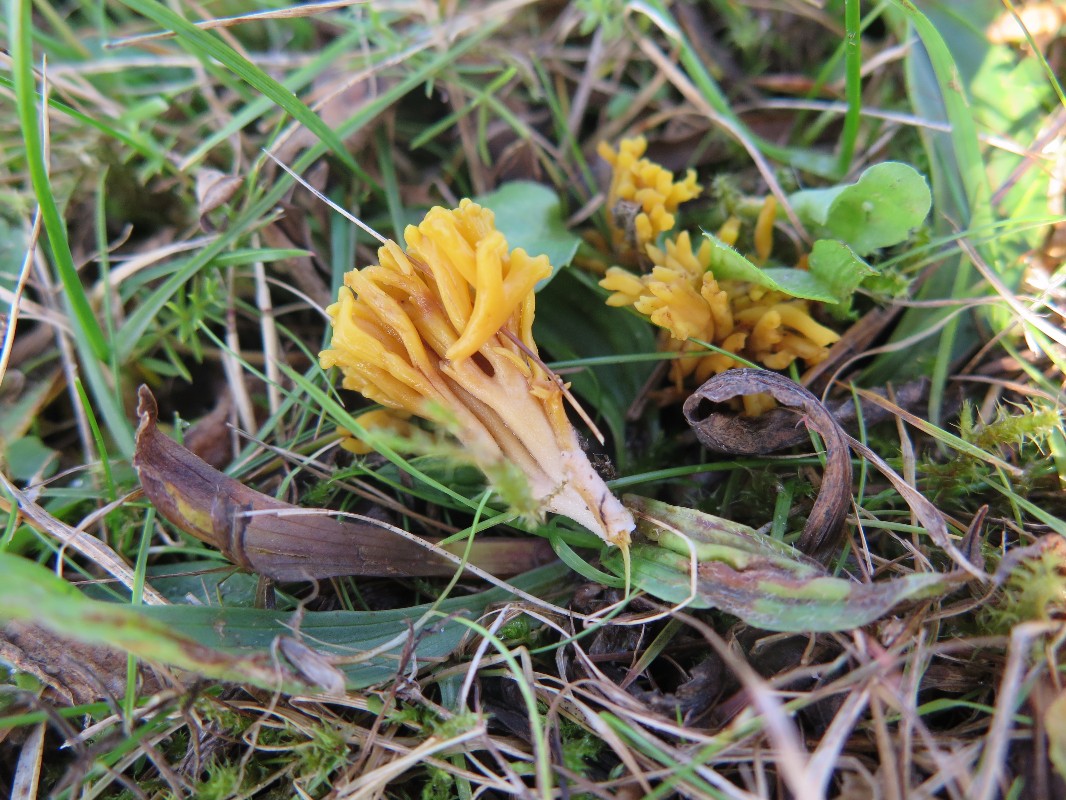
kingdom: Fungi
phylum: Basidiomycota
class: Agaricomycetes
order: Agaricales
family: Clavariaceae
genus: Clavulinopsis
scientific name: Clavulinopsis corniculata
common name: eng-køllesvamp
